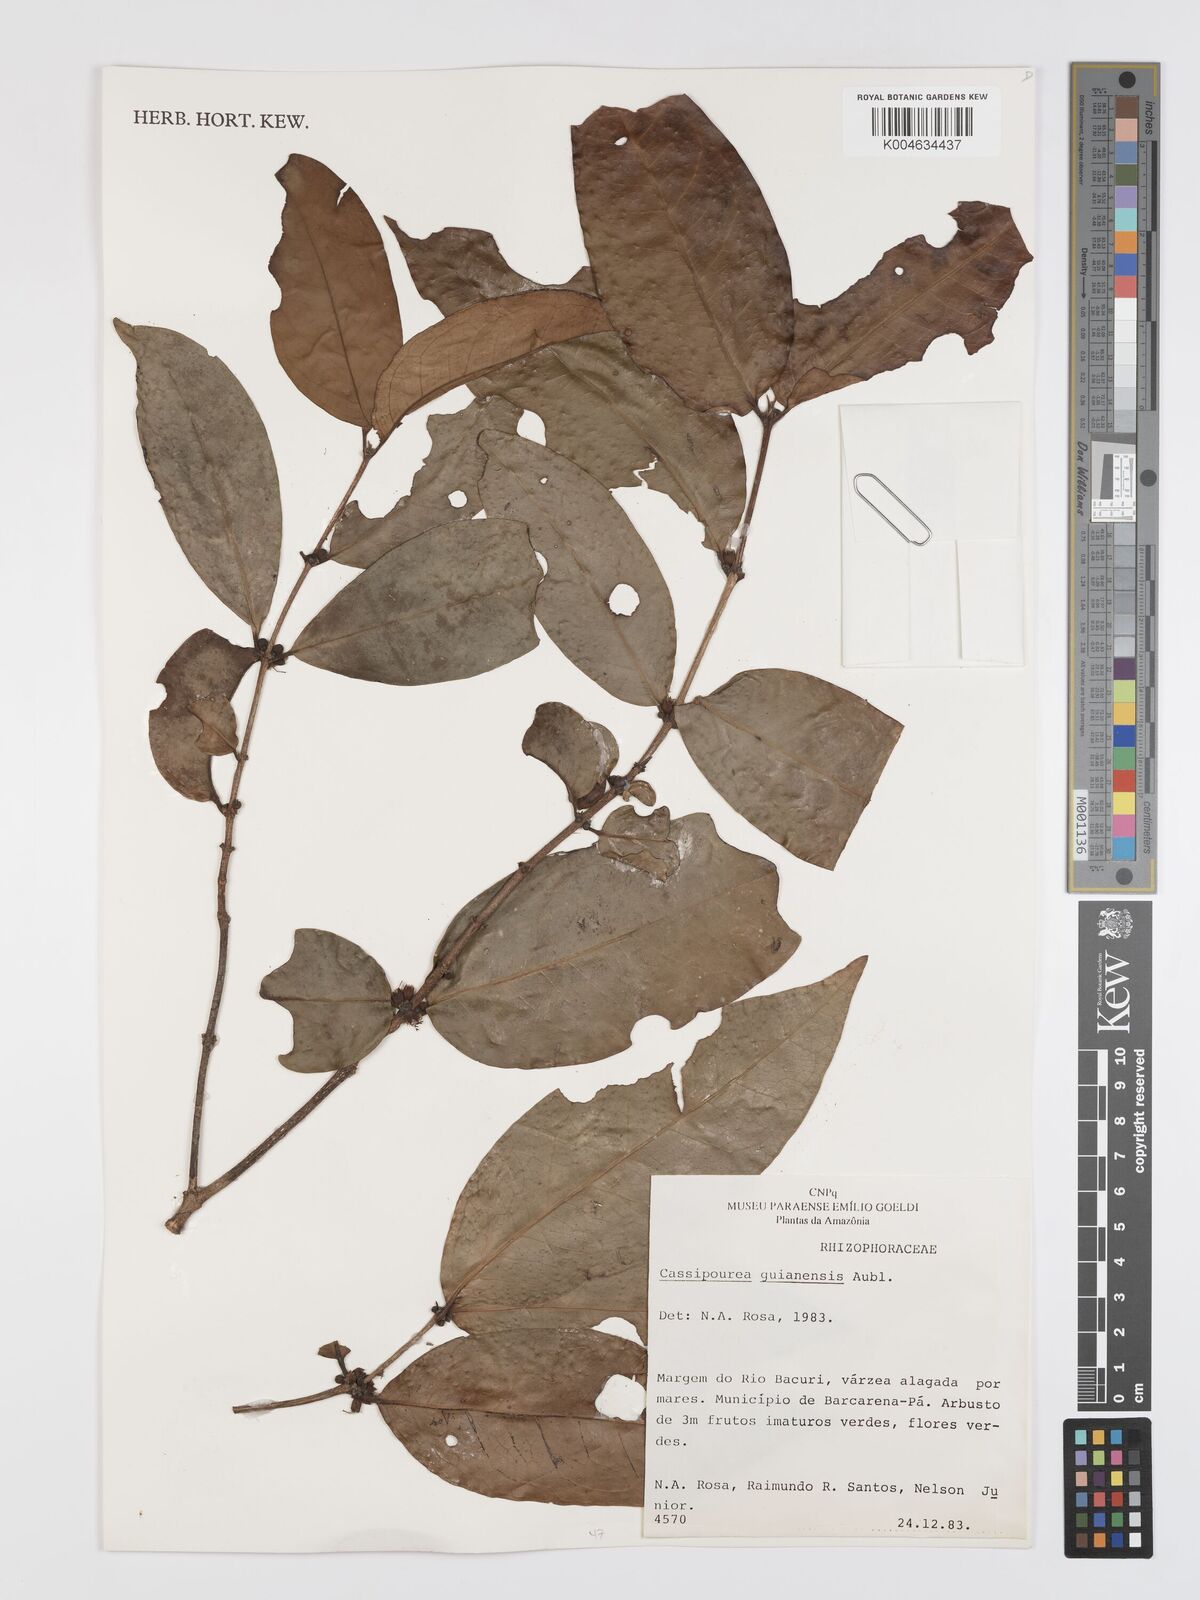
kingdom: Plantae
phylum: Tracheophyta
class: Magnoliopsida
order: Malpighiales
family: Rhizophoraceae
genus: Cassipourea
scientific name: Cassipourea guianensis
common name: Bastard waterwood
